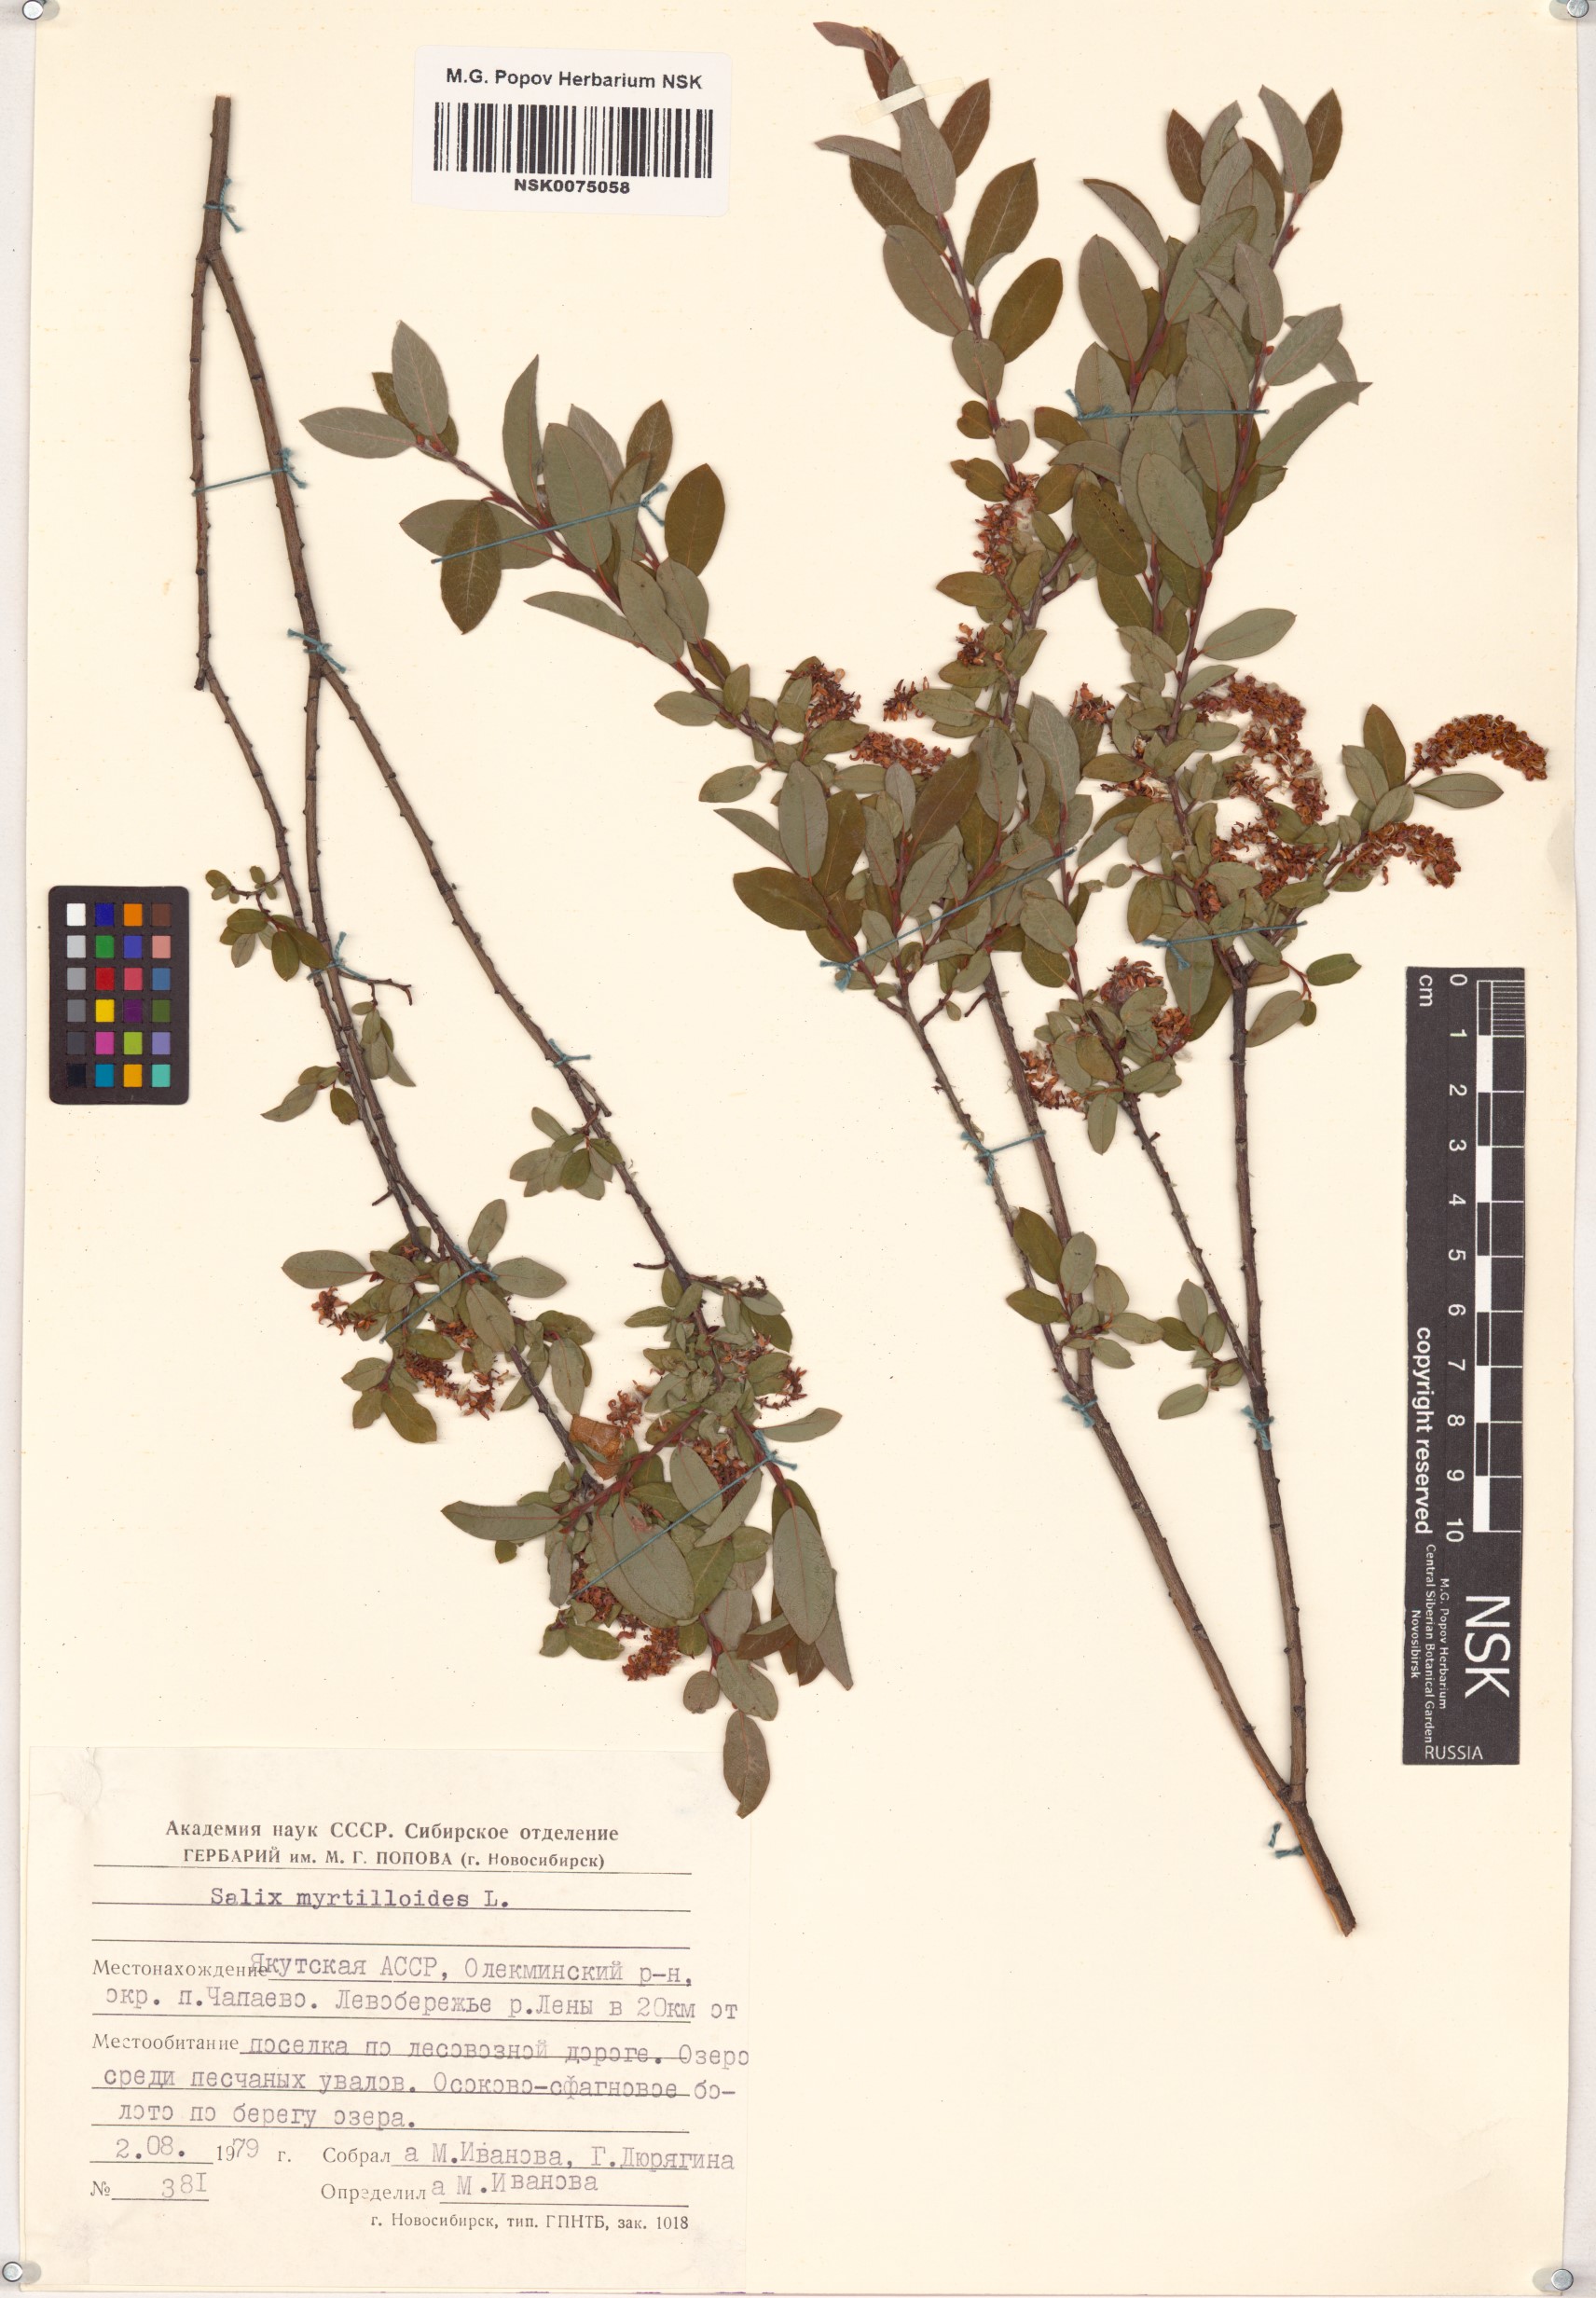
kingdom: Plantae
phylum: Tracheophyta
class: Magnoliopsida
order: Malpighiales
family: Salicaceae
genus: Salix
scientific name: Salix myrtilloides
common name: Myrtle-leaved willow
